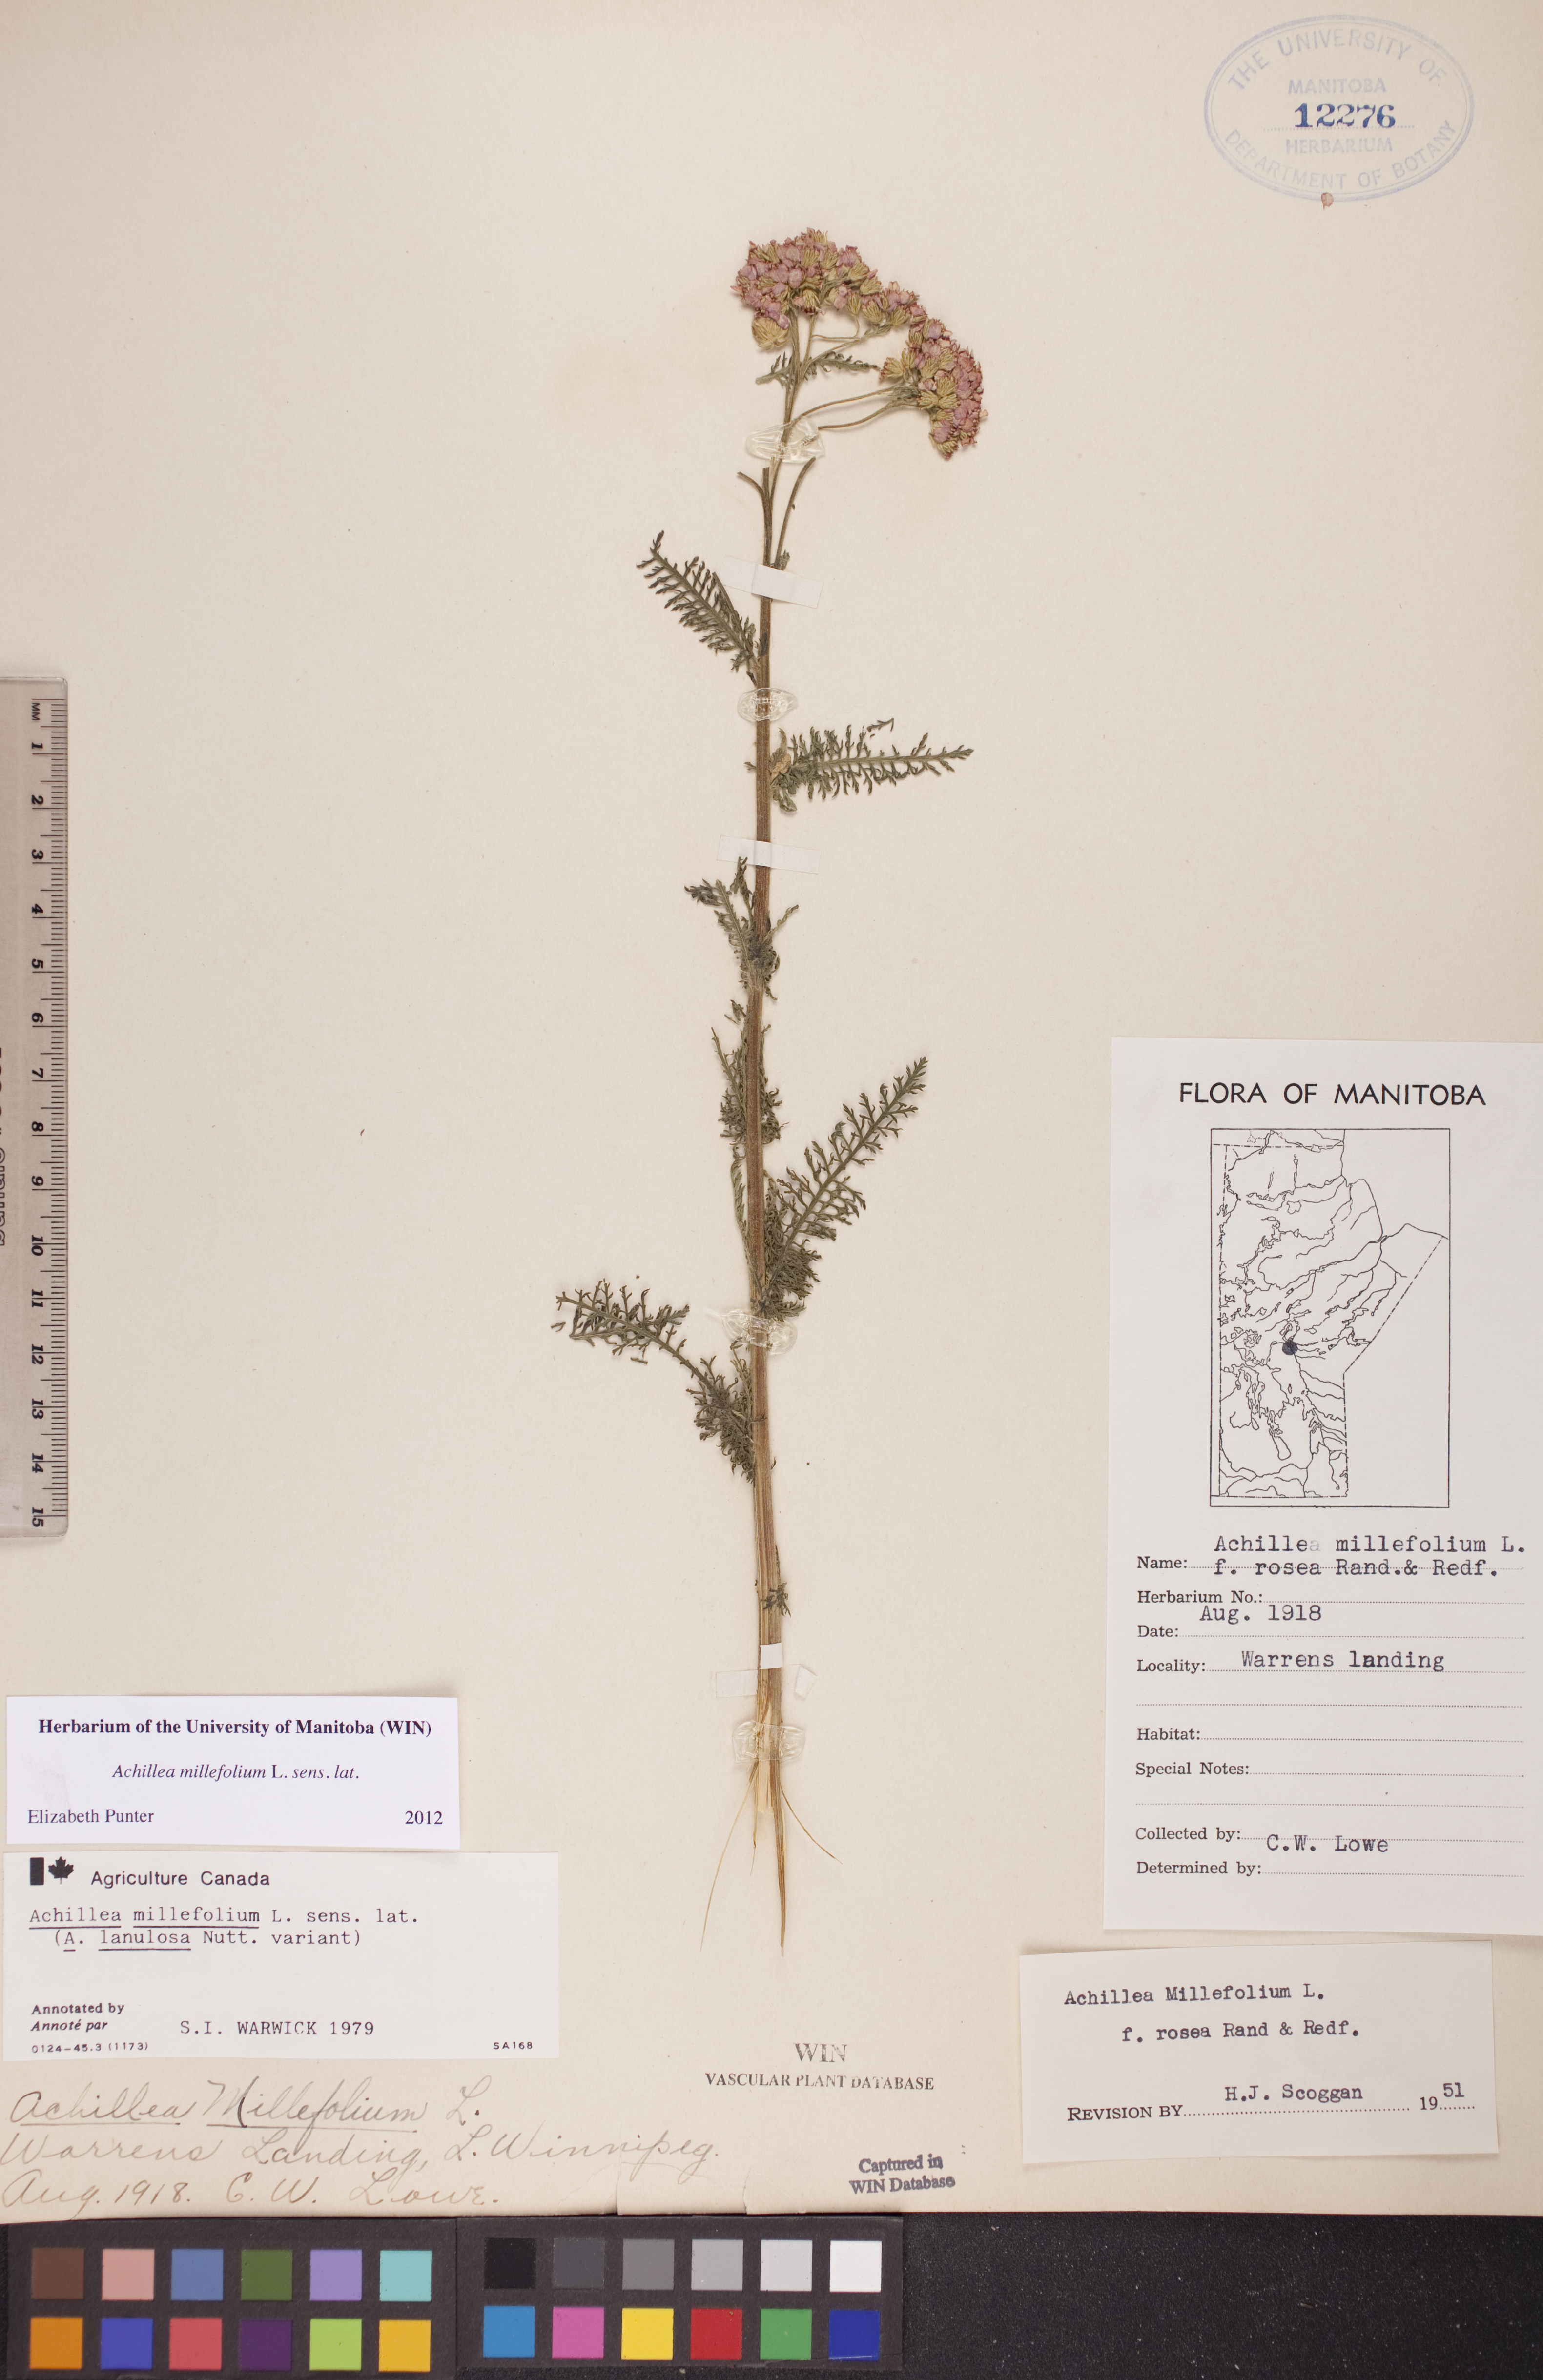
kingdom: Plantae
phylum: Tracheophyta
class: Magnoliopsida
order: Asterales
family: Asteraceae
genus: Achillea
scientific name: Achillea millefolium
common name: Yarrow
